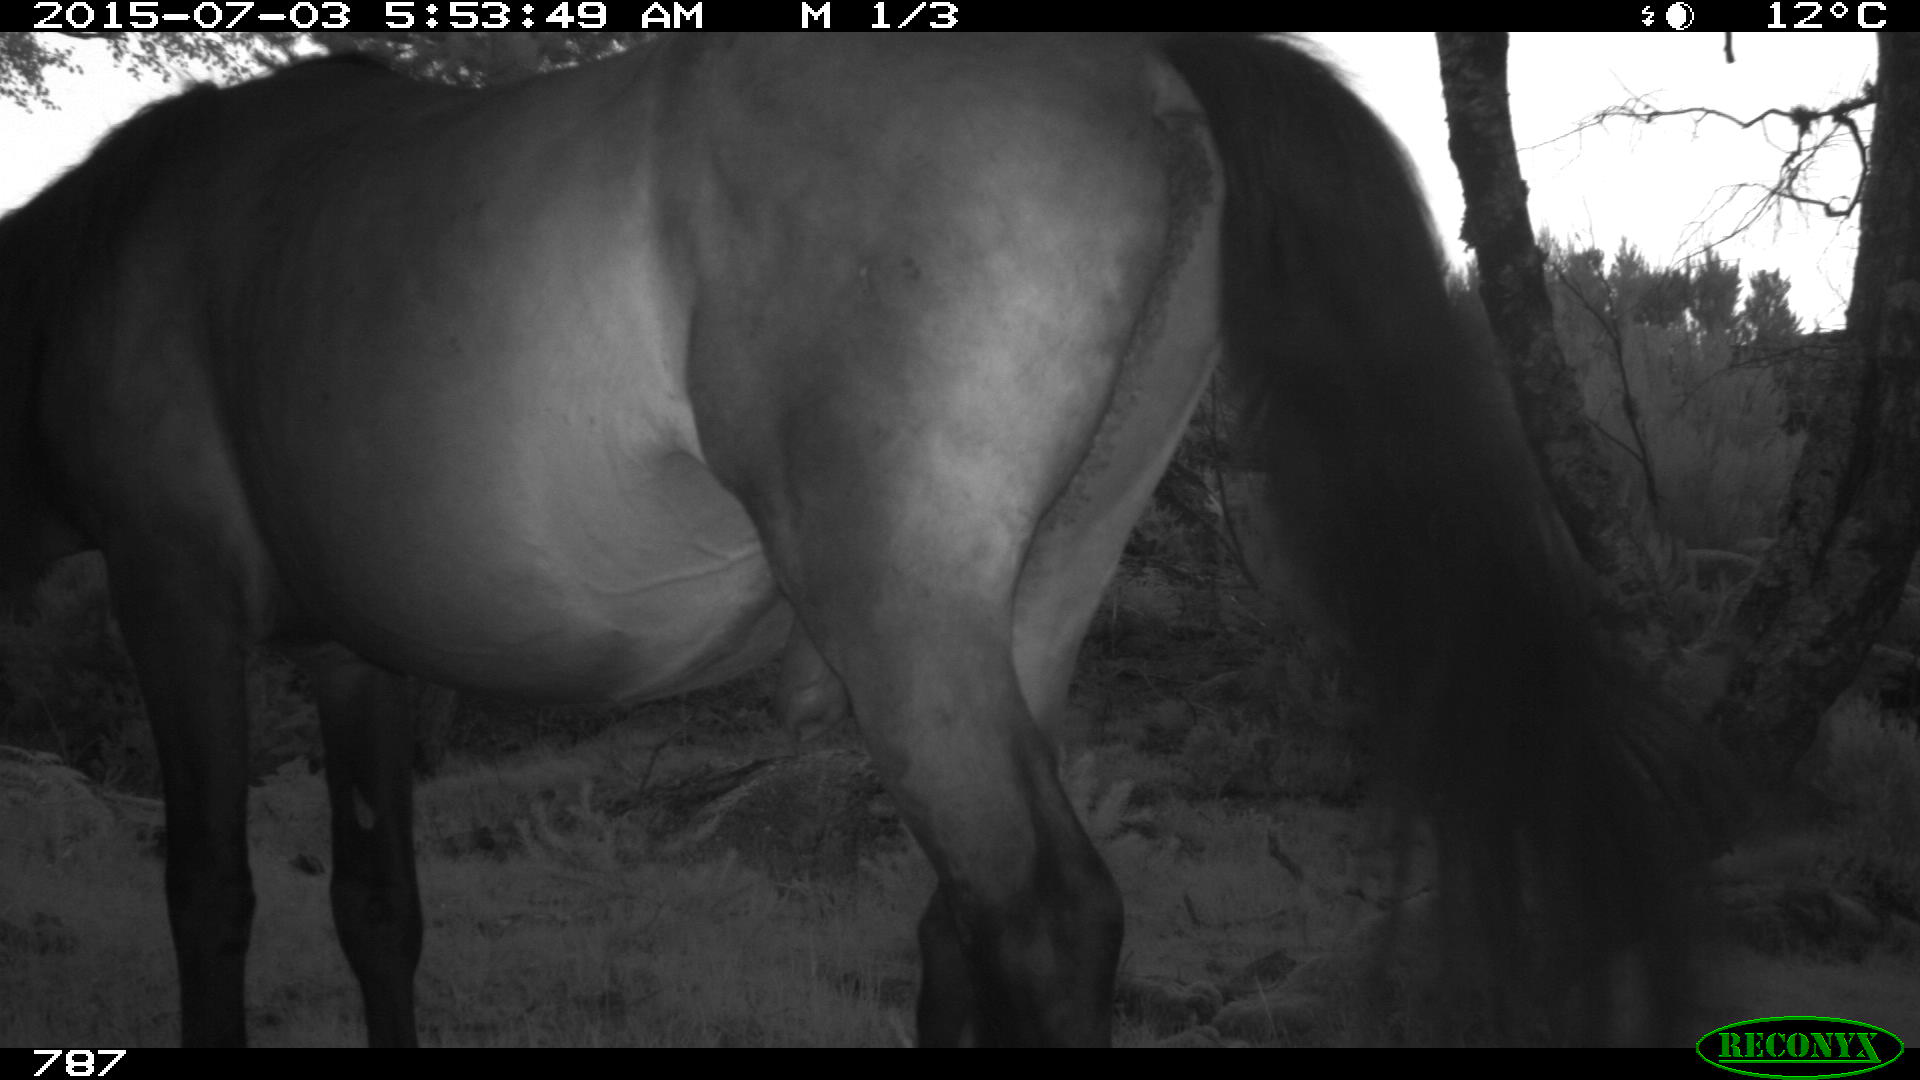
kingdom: Animalia
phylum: Chordata
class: Mammalia
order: Perissodactyla
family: Equidae
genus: Equus
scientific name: Equus caballus
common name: Horse
